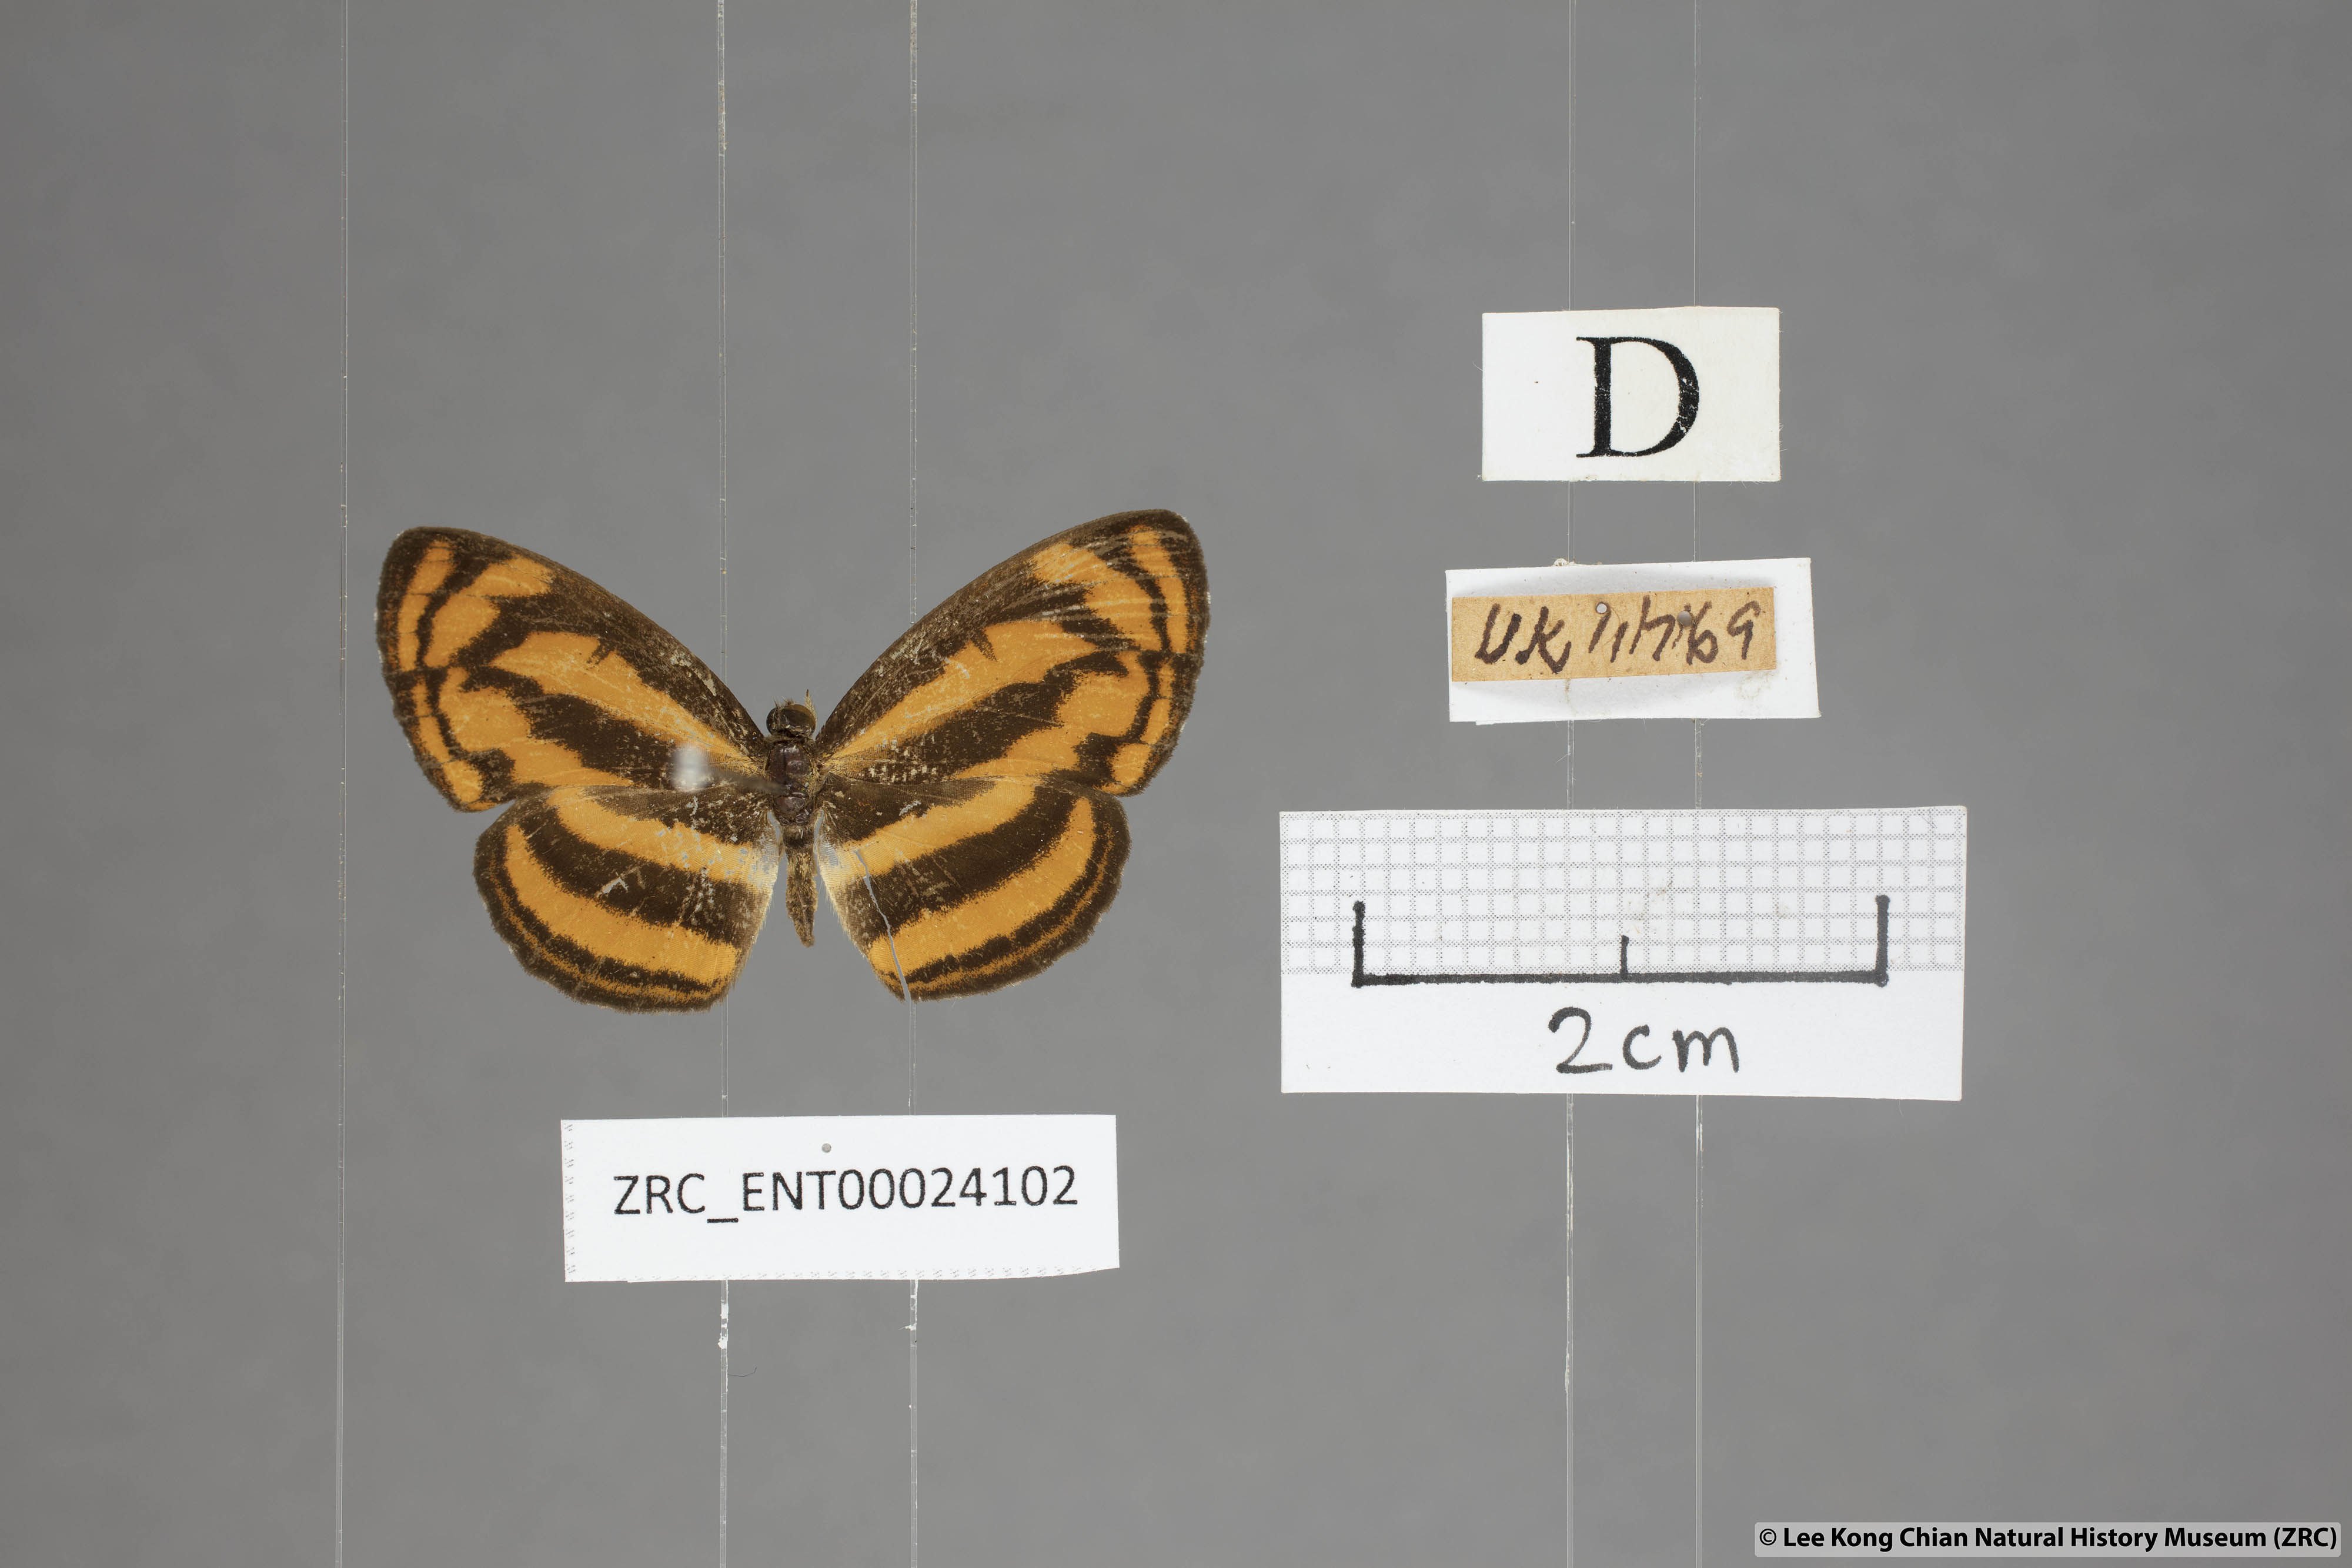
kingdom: Animalia
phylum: Arthropoda
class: Insecta
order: Lepidoptera
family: Nymphalidae
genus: Pantoporia
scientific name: Pantoporia aurelia
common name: Baby lascar
